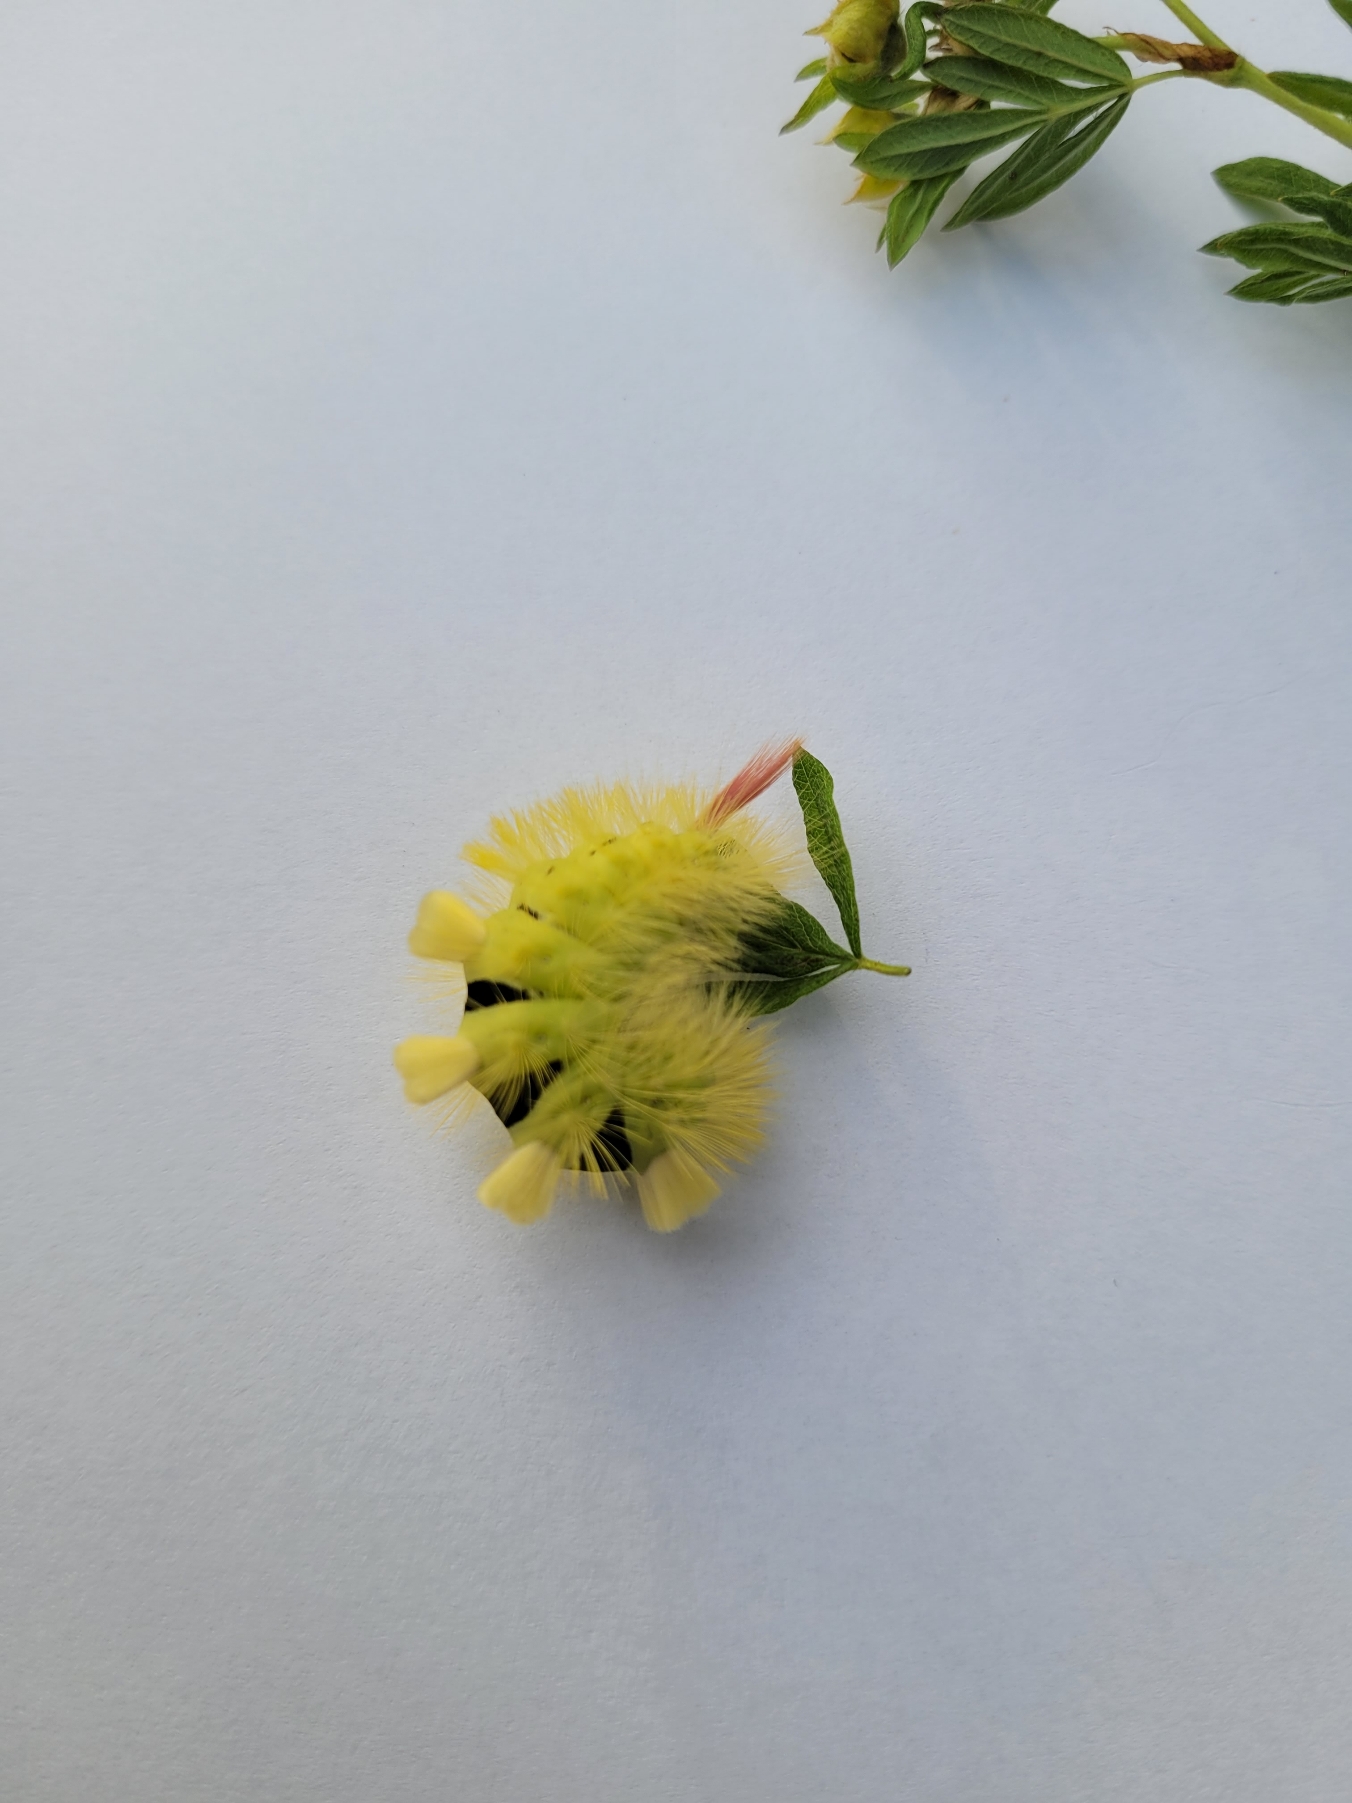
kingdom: Animalia
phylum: Arthropoda
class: Insecta
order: Lepidoptera
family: Erebidae
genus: Calliteara
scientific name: Calliteara pudibunda
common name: Bøgenonne
